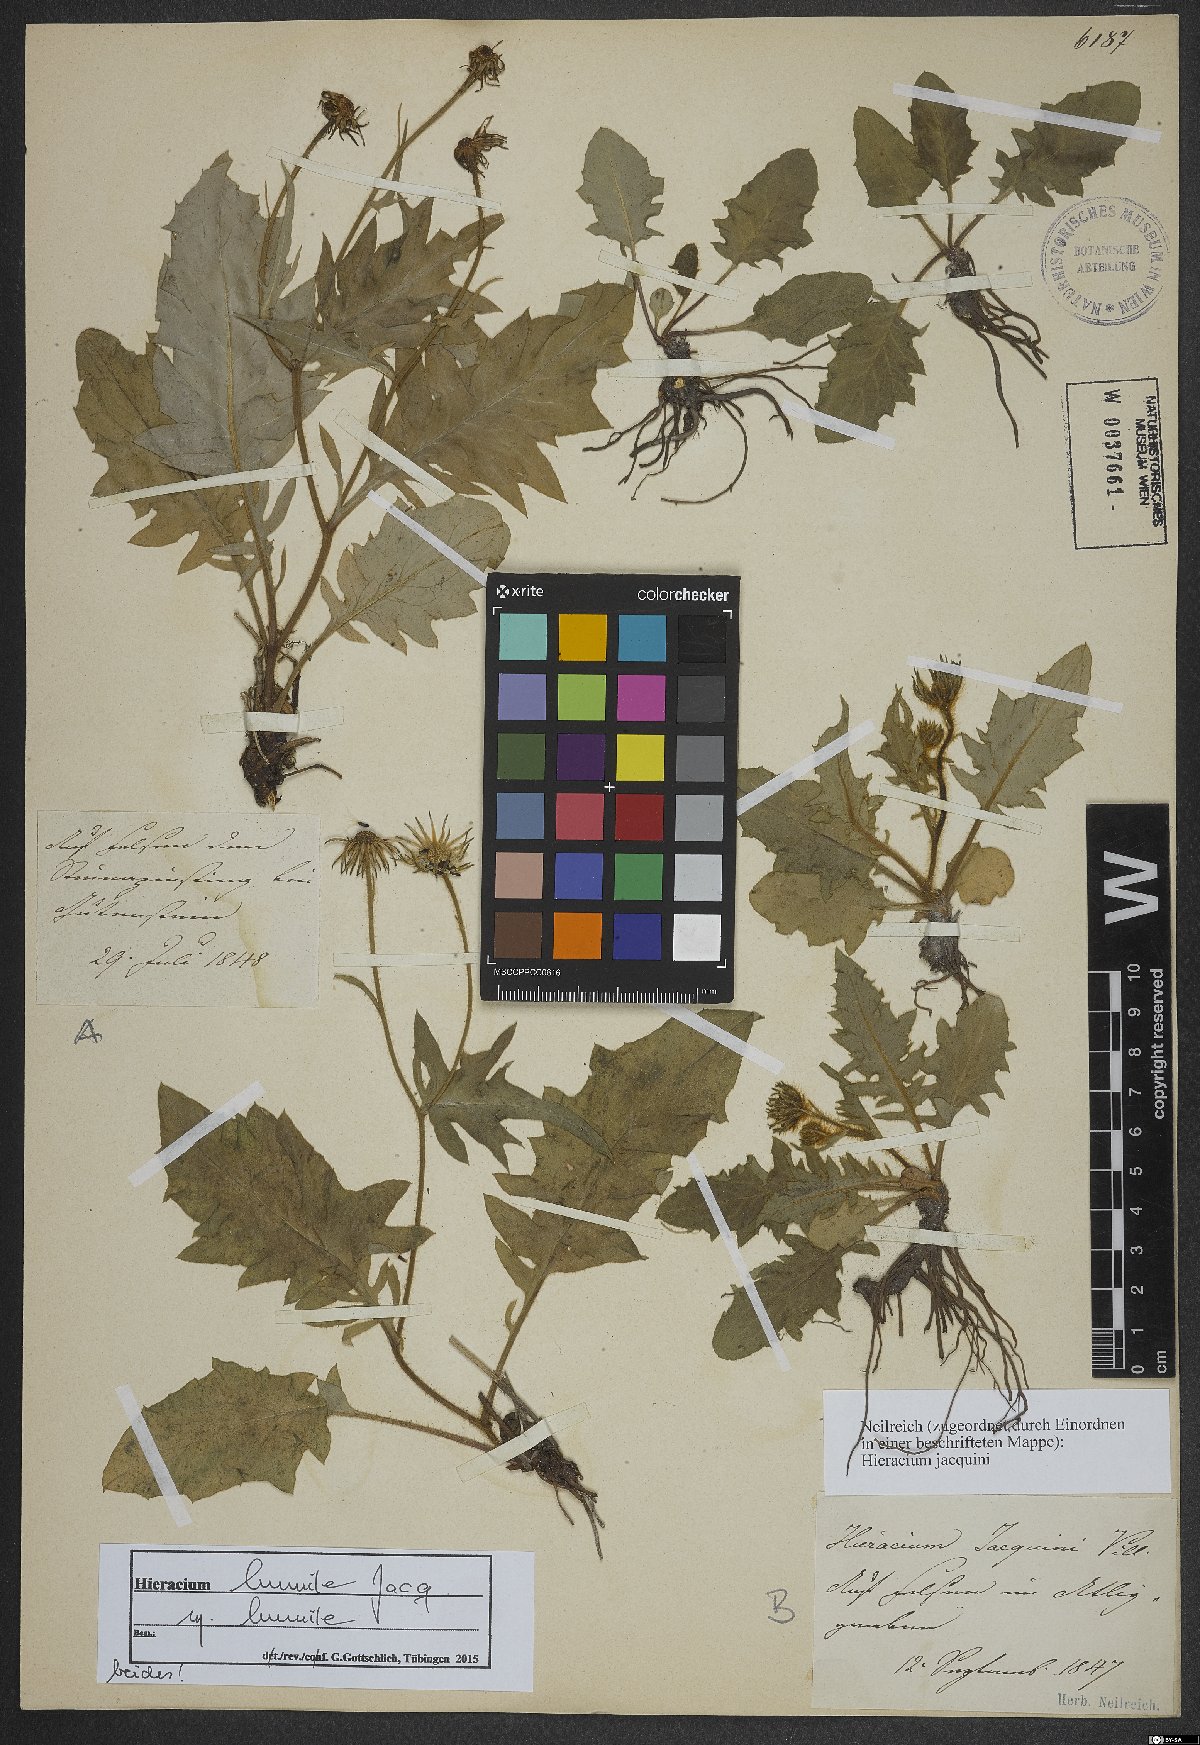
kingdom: Plantae
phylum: Tracheophyta
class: Magnoliopsida
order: Asterales
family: Asteraceae
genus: Hieracium
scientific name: Hieracium humile
